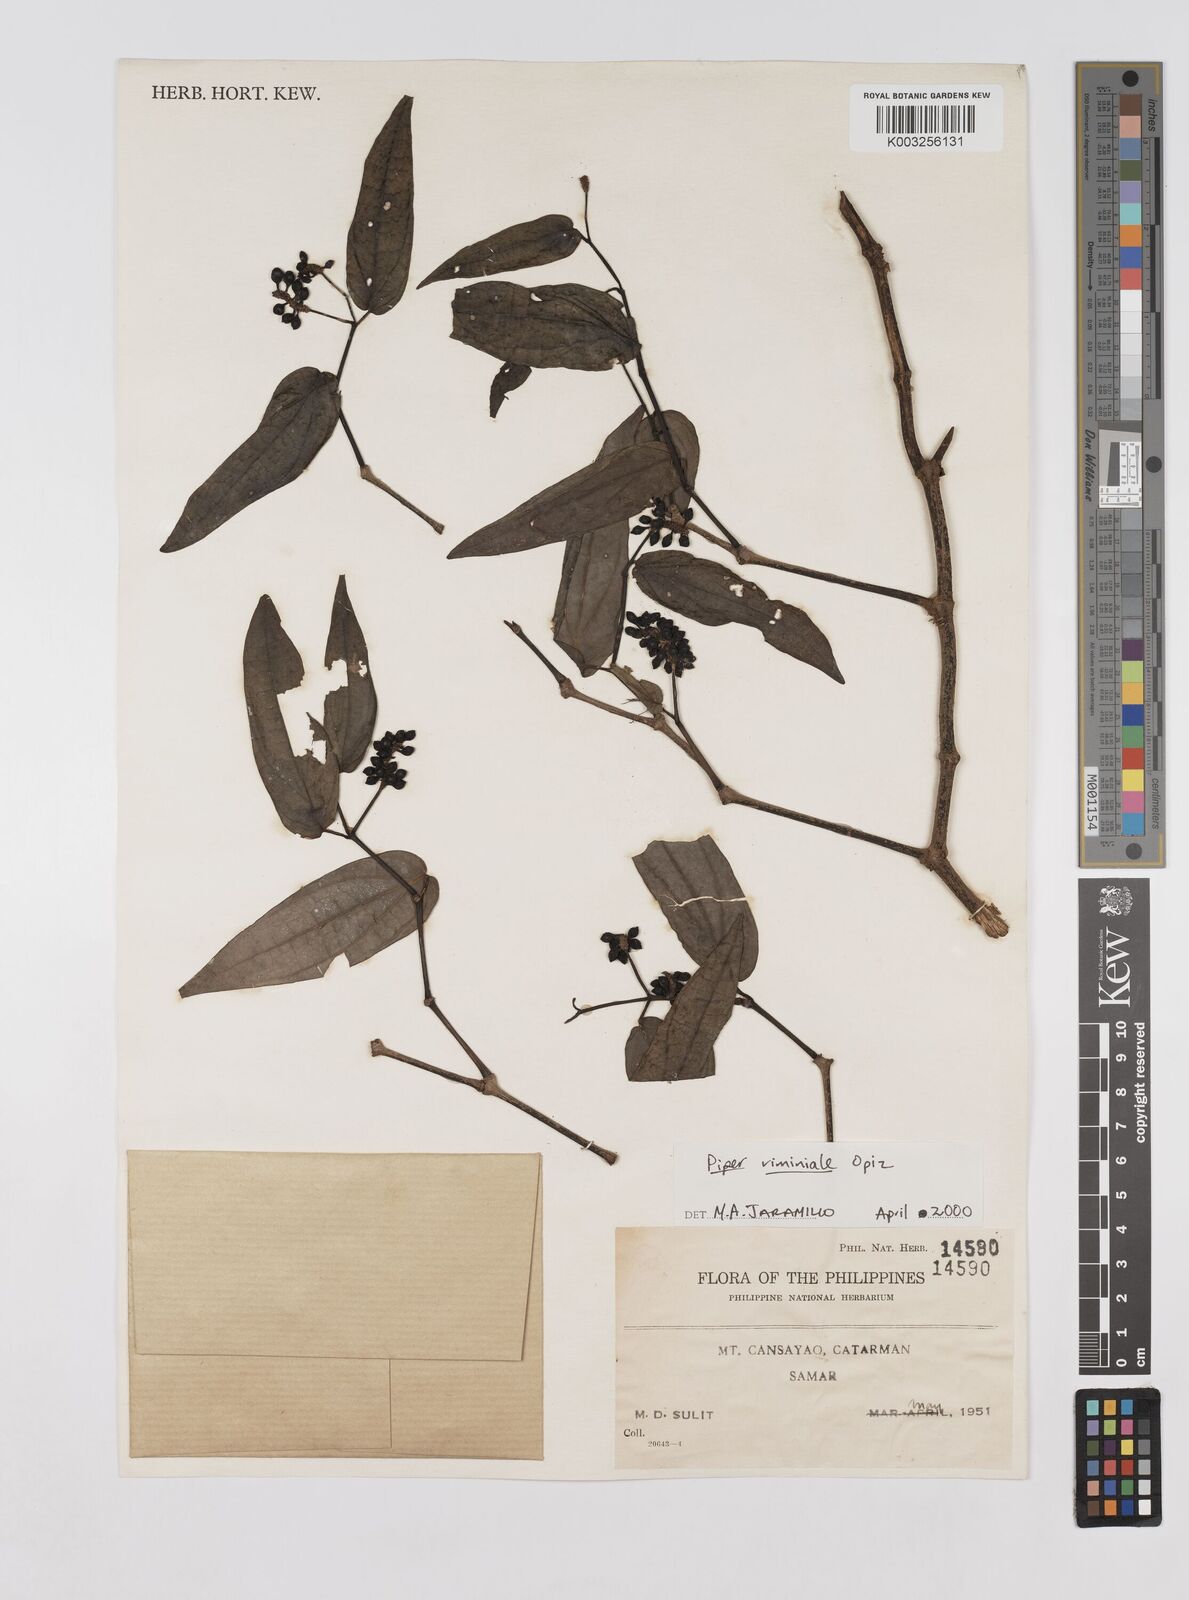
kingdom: Plantae
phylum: Tracheophyta
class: Magnoliopsida
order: Piperales
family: Piperaceae
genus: Piper
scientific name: Piper lanatum
